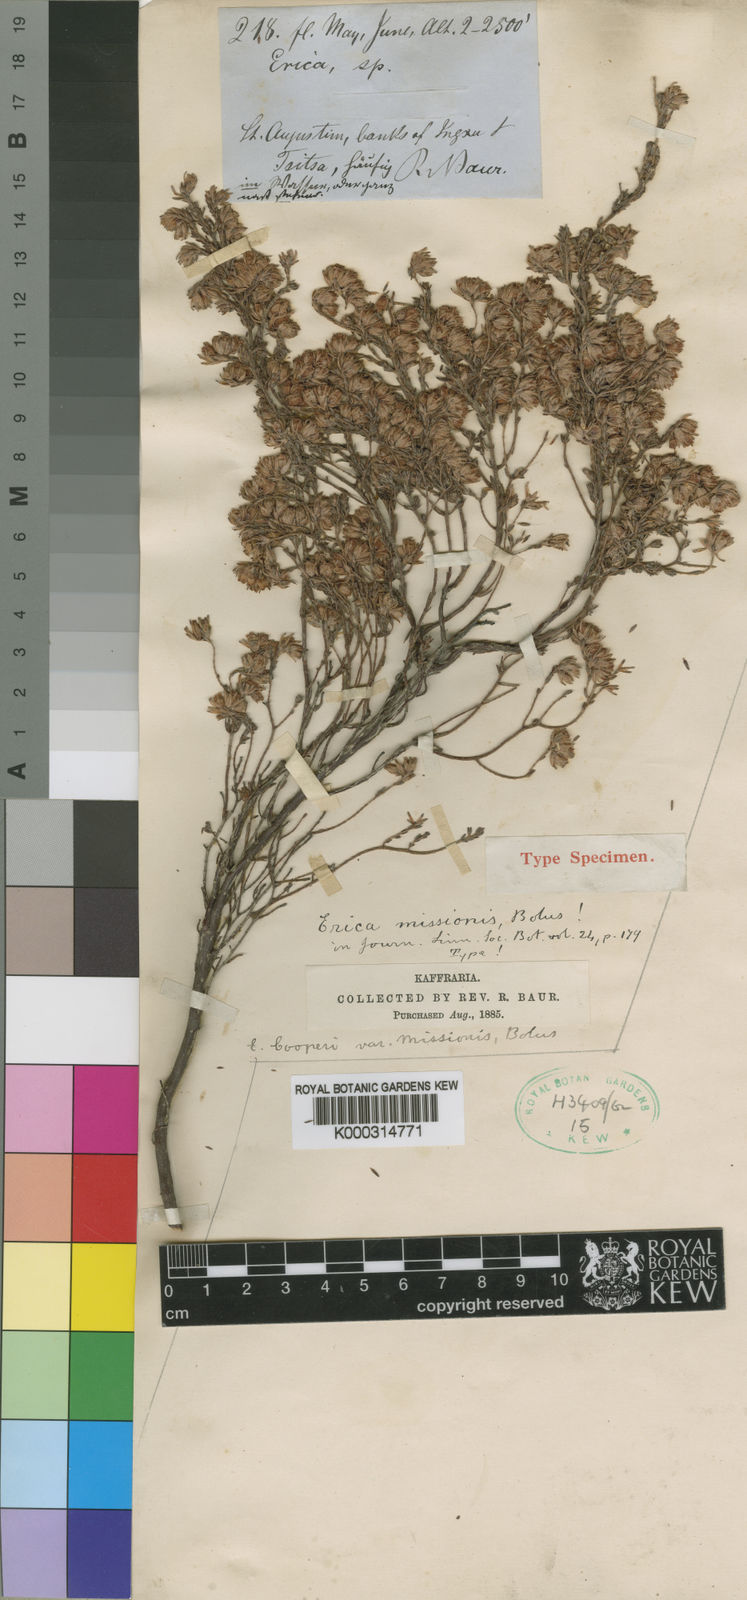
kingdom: Plantae
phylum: Tracheophyta
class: Magnoliopsida
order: Ericales
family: Ericaceae
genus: Erica
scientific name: Erica cooperi
